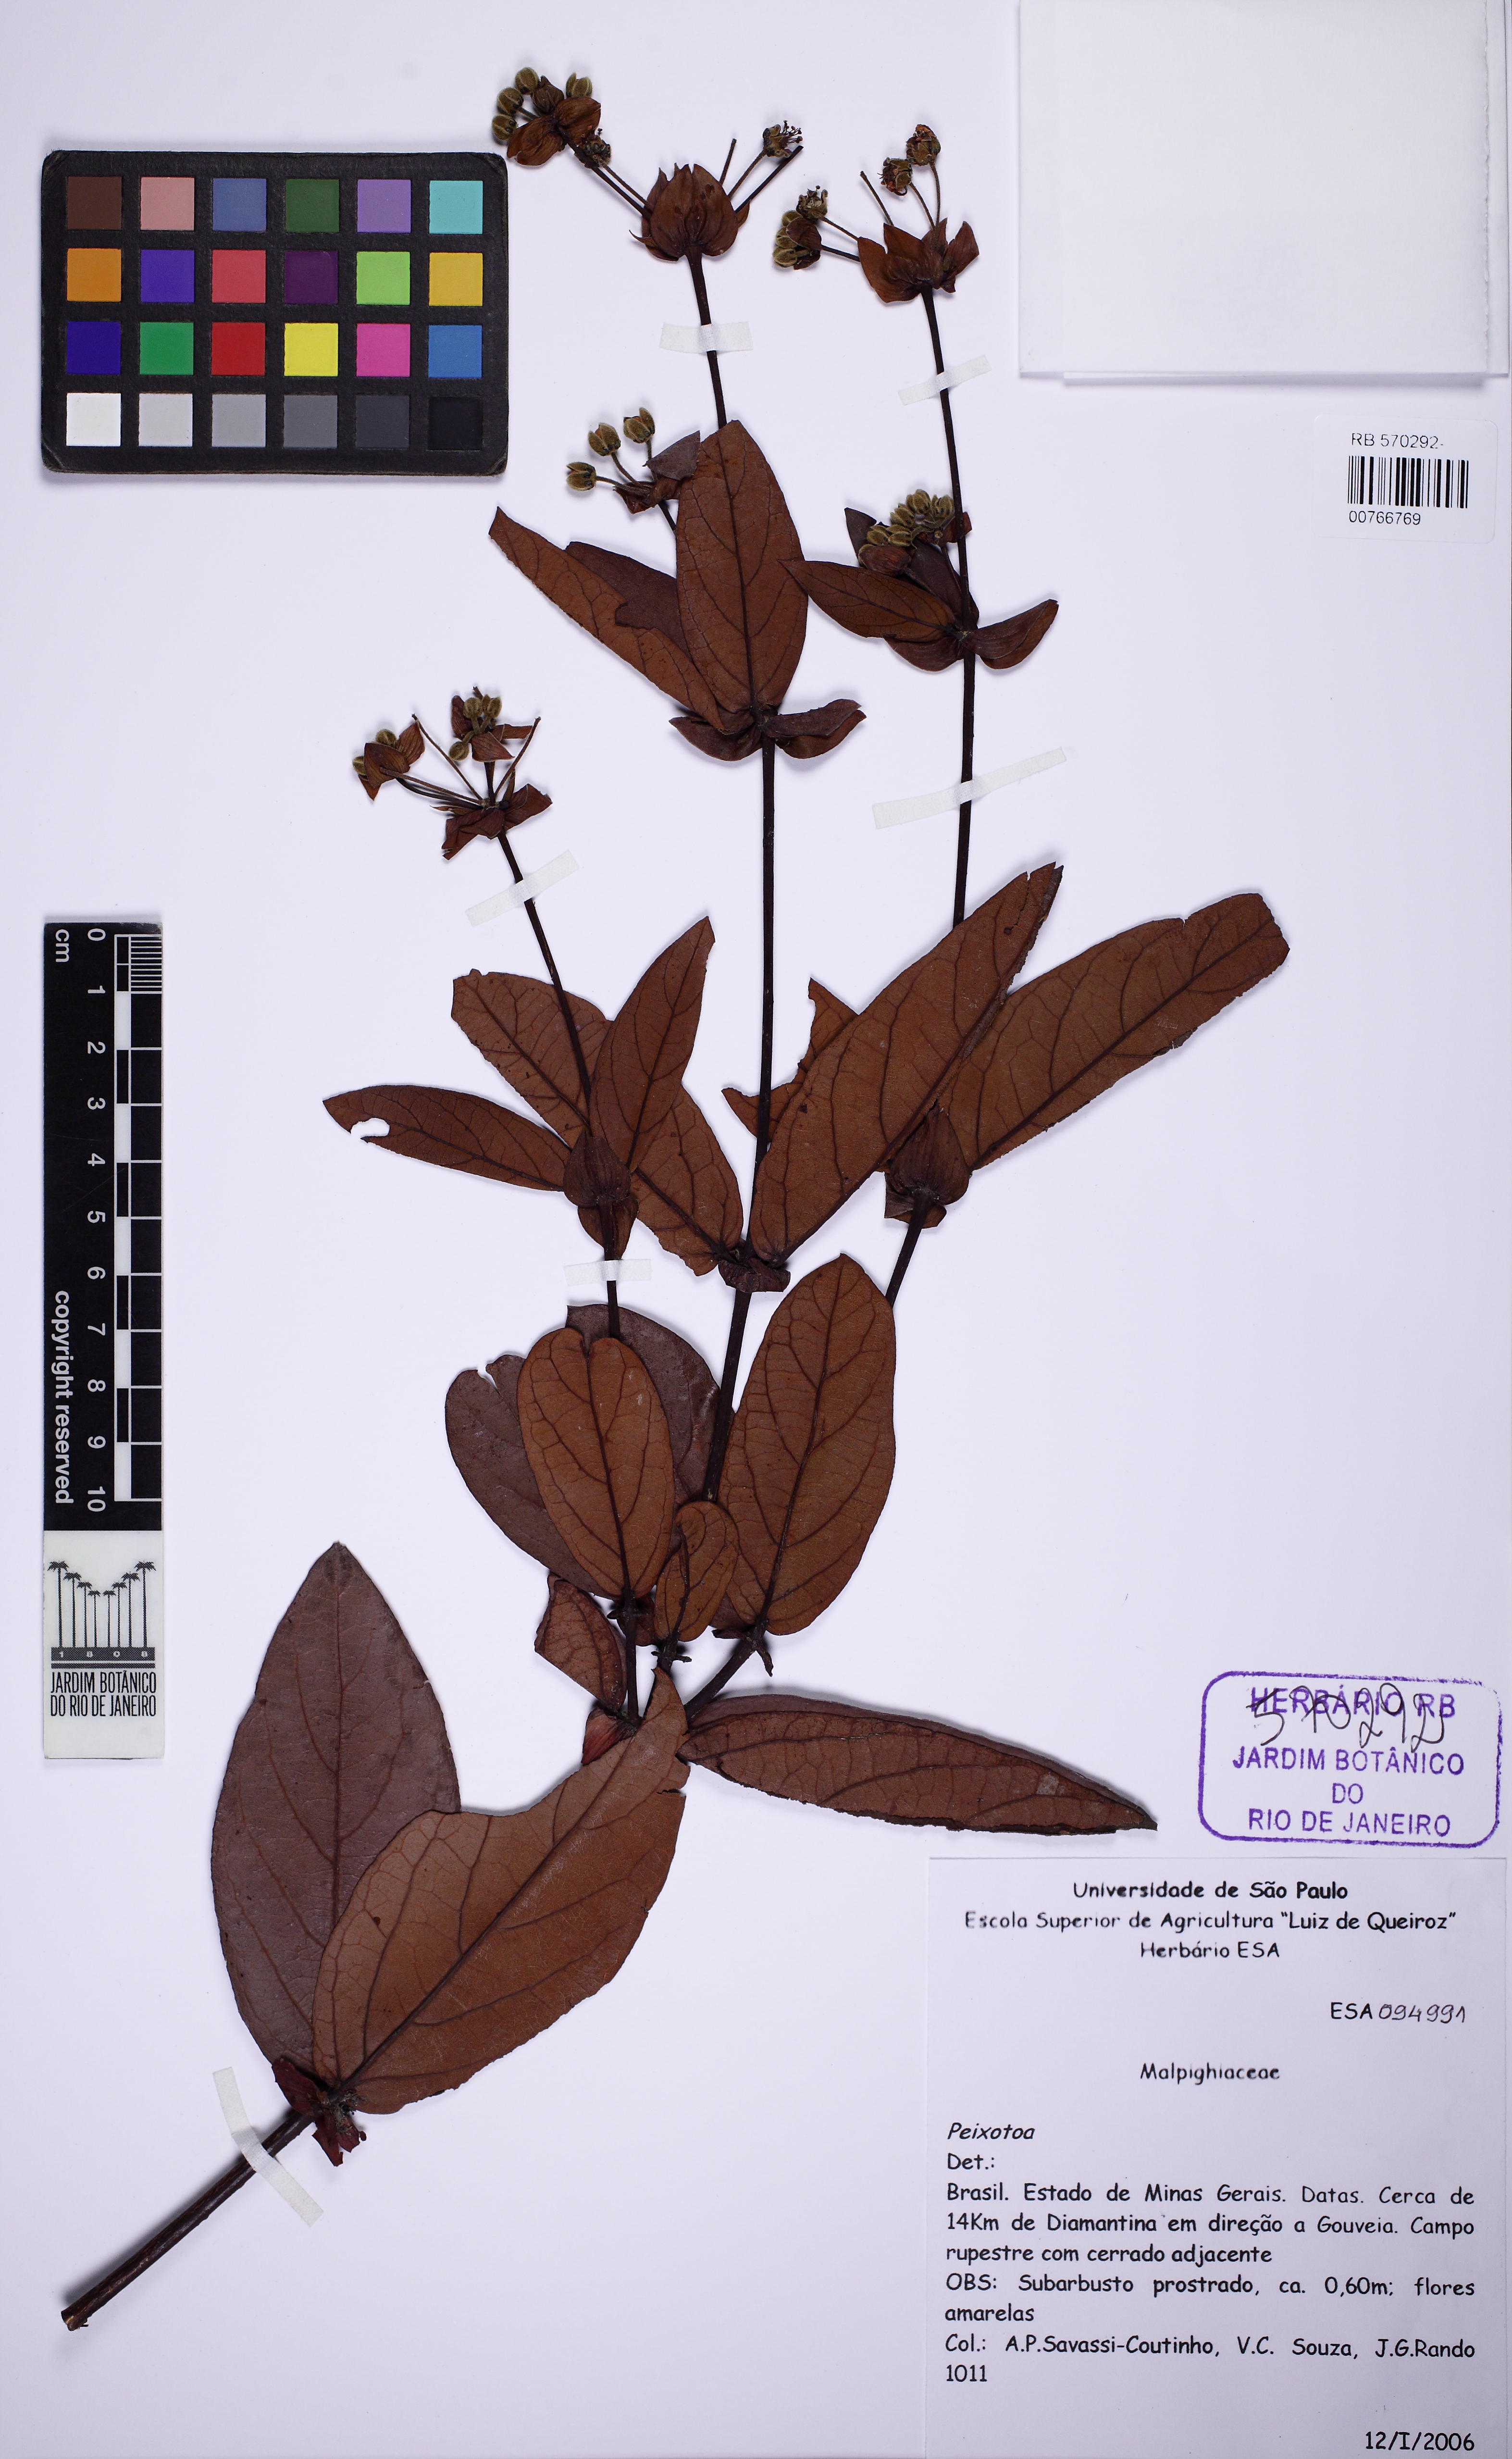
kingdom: Plantae
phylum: Tracheophyta
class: Magnoliopsida
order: Malpighiales
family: Malpighiaceae
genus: Peixotoa
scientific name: Peixotoa
